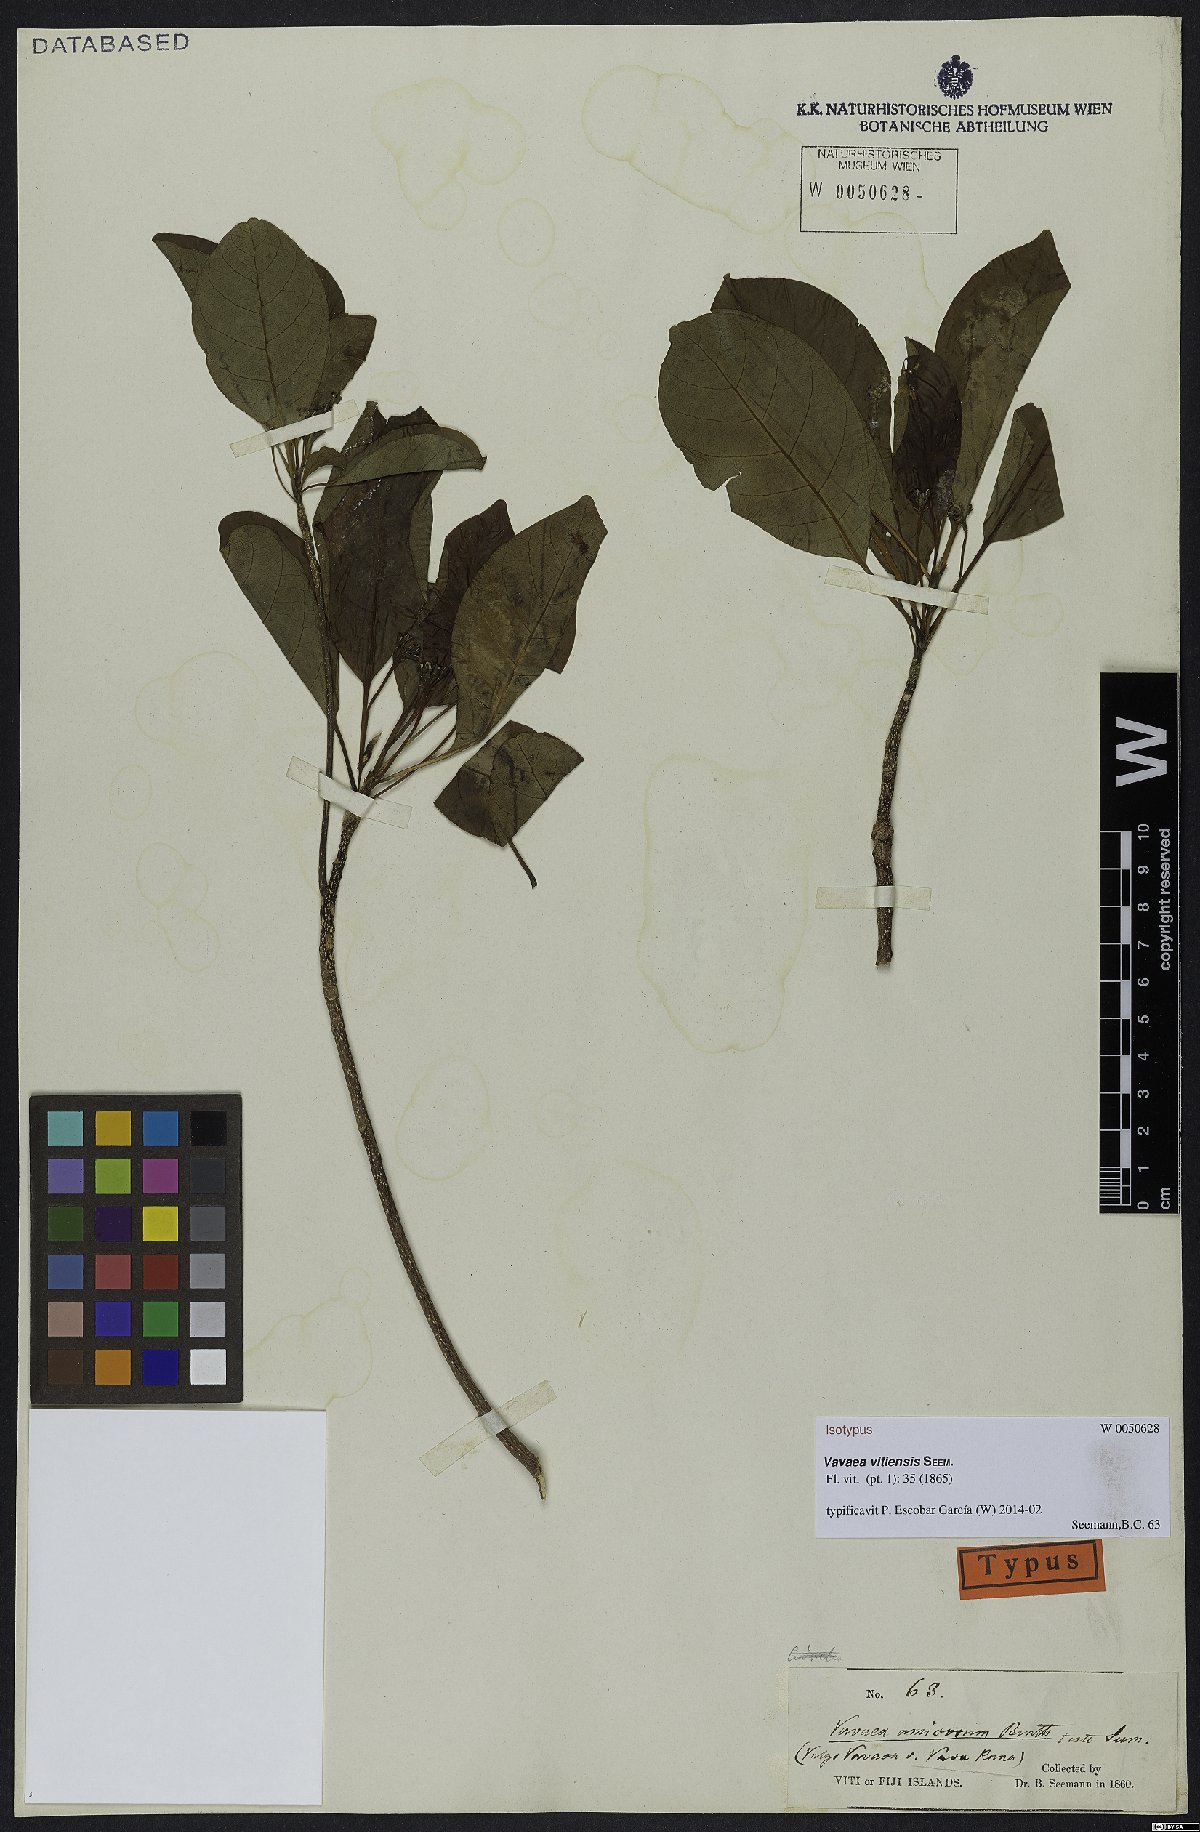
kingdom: Plantae
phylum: Tracheophyta
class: Magnoliopsida
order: Sapindales
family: Meliaceae
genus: Vavaea
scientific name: Vavaea amicorum
